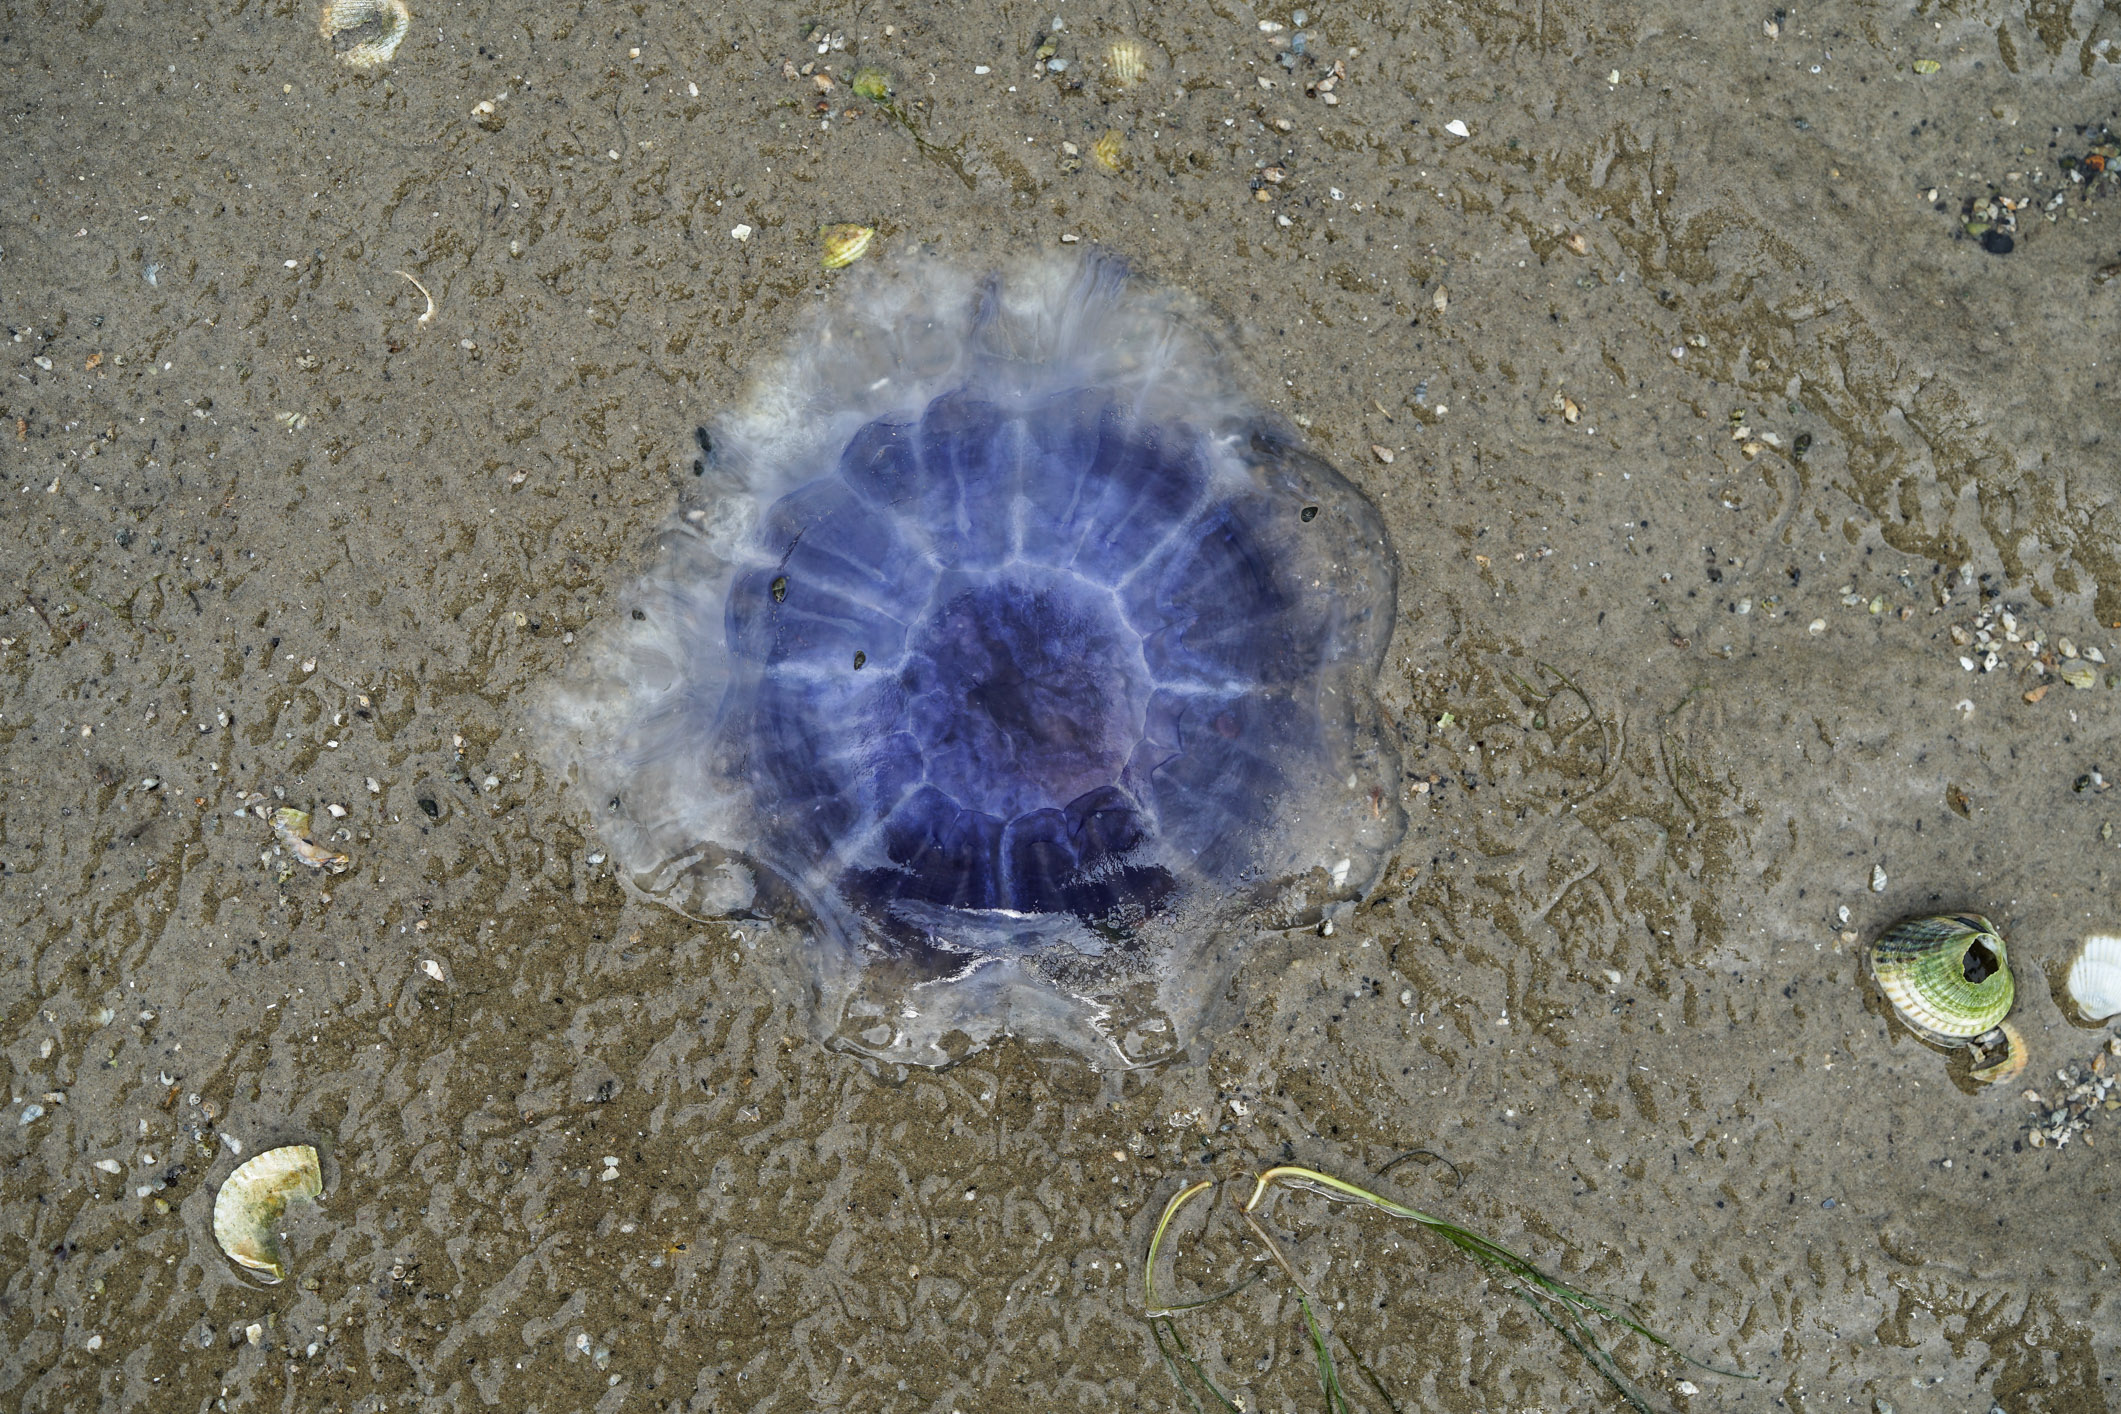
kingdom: Animalia
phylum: Cnidaria
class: Scyphozoa
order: Semaeostomeae
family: Cyaneidae
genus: Cyanea
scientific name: Cyanea lamarckii
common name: Blue jellyfish
